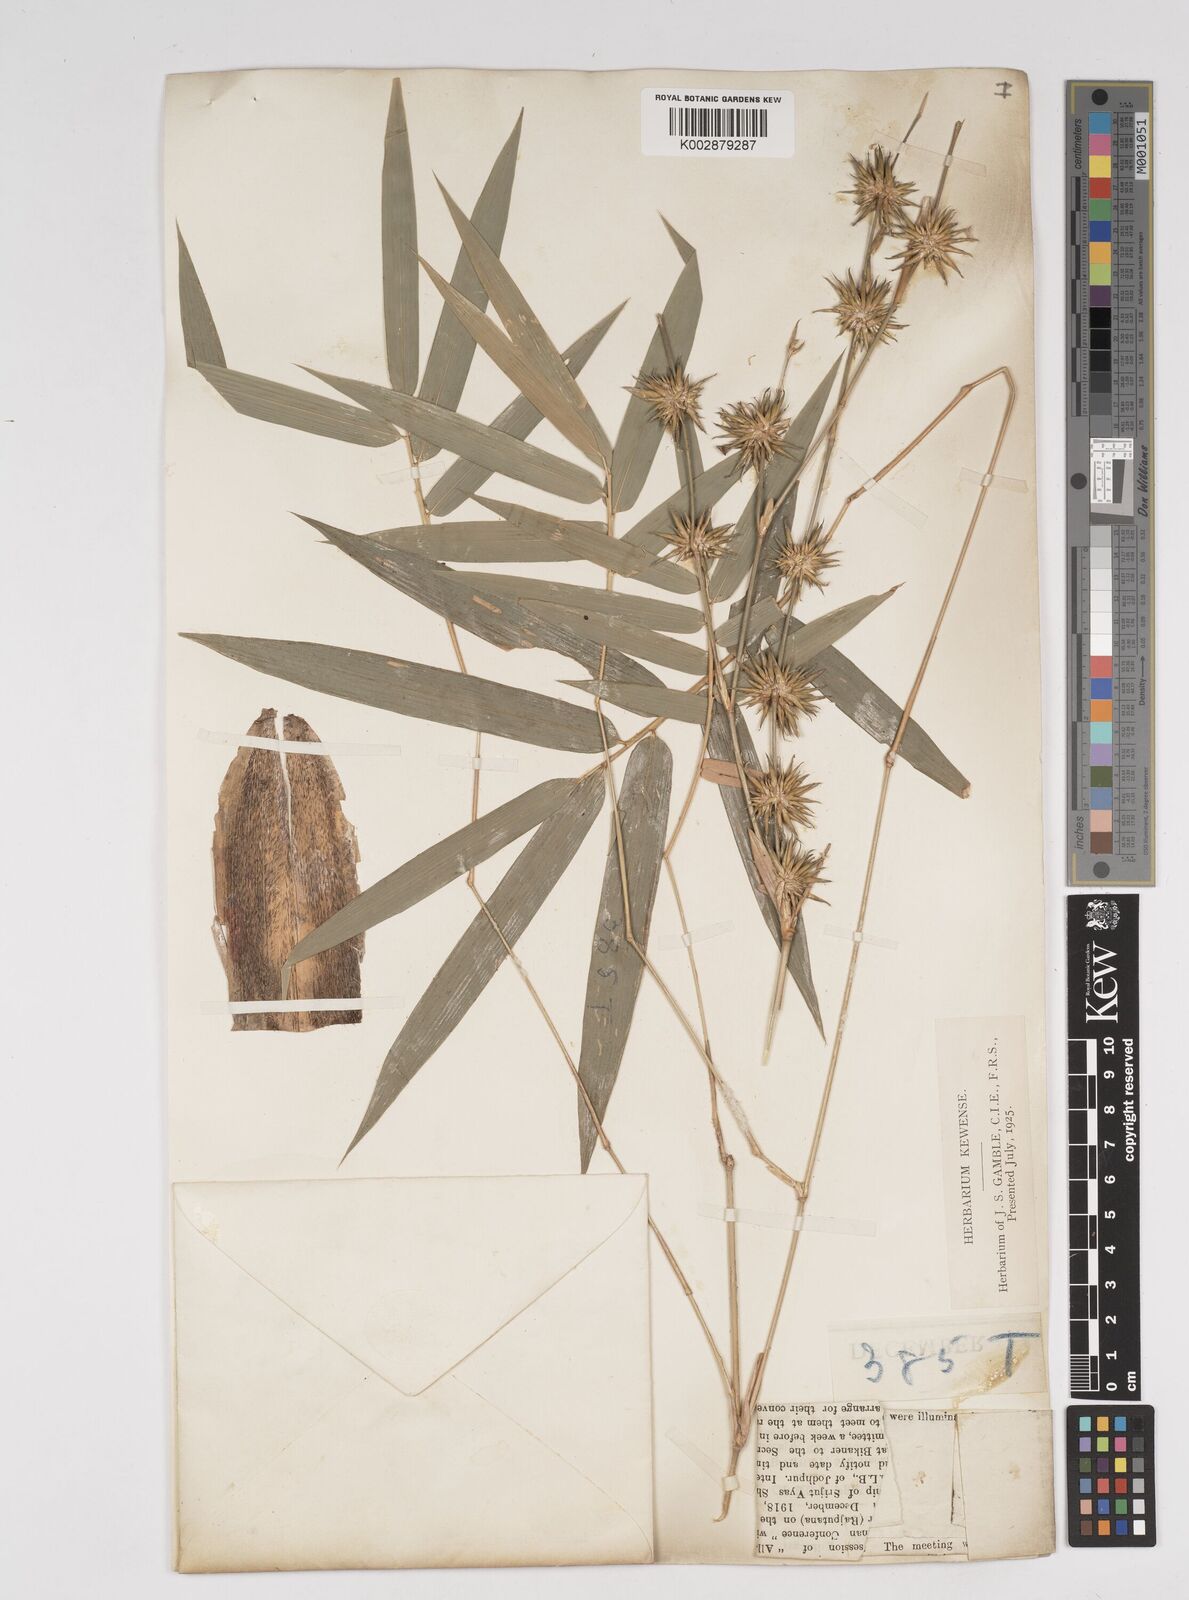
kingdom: Plantae
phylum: Tracheophyta
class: Liliopsida
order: Poales
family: Poaceae
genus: Dendrocalamus
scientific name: Dendrocalamus
